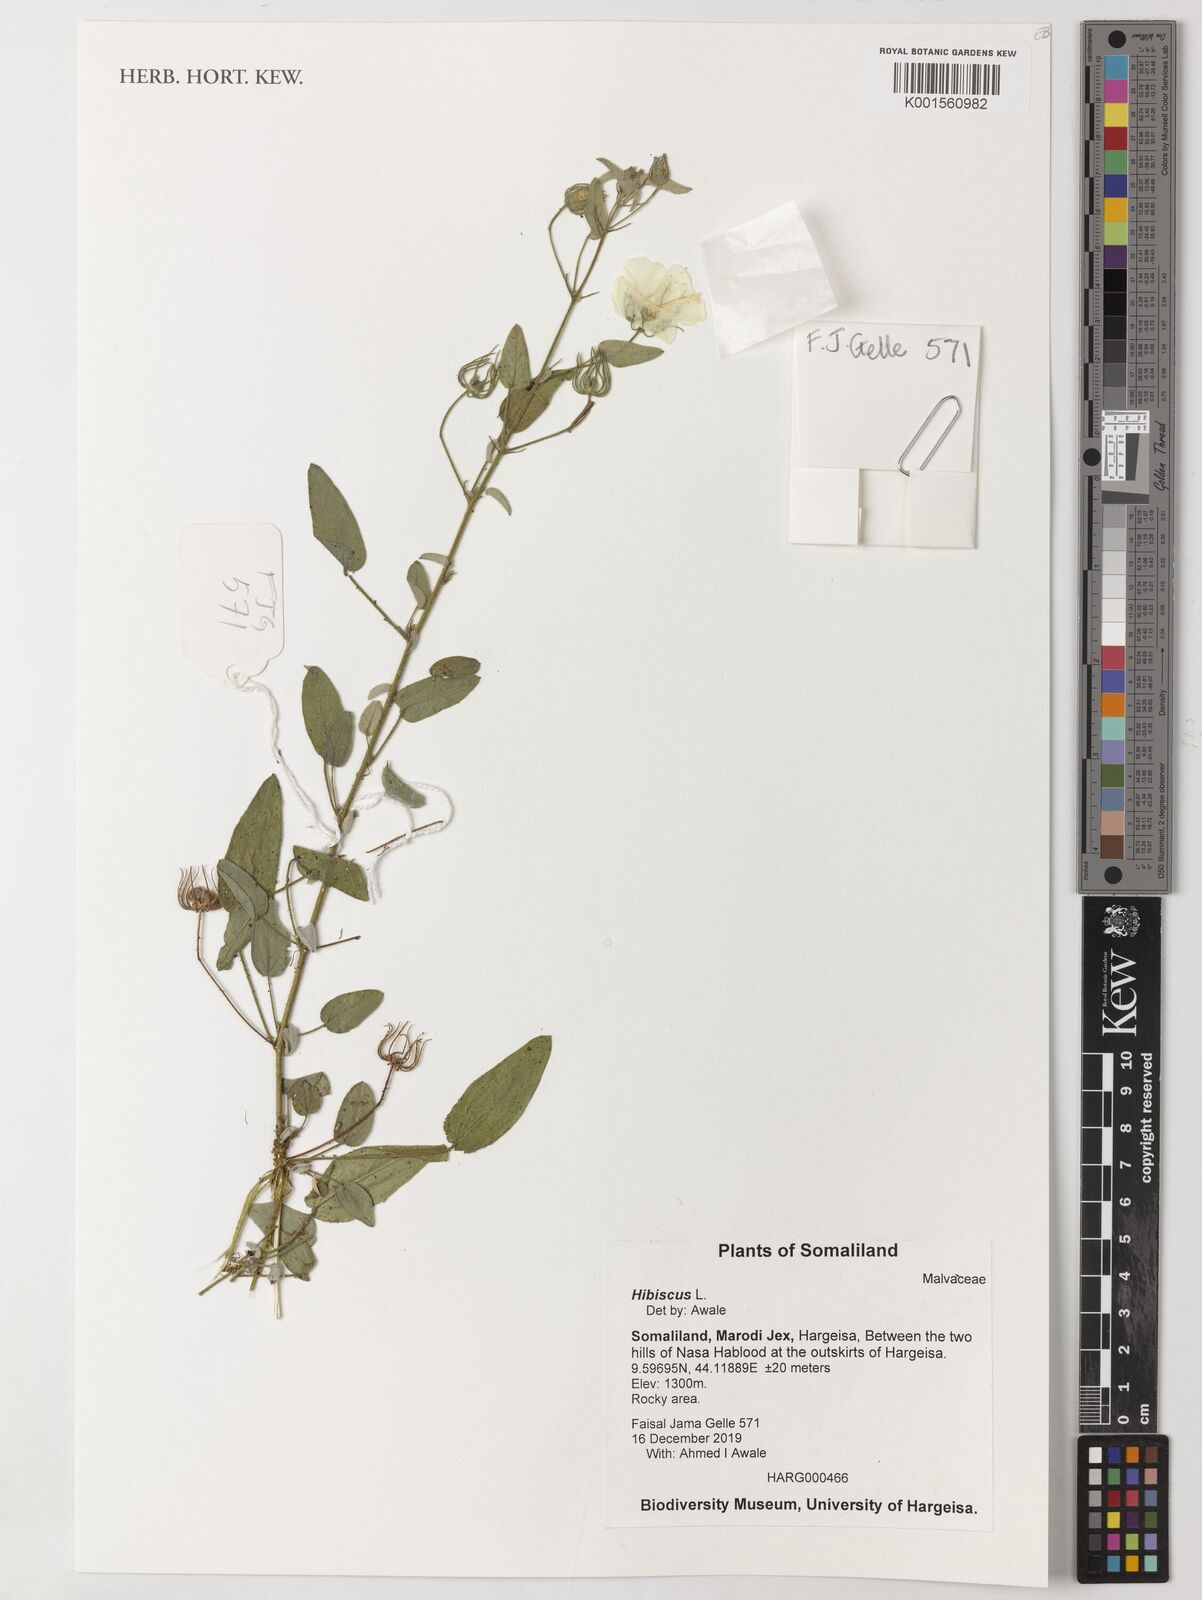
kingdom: Plantae
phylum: Tracheophyta
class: Magnoliopsida
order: Malvales
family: Malvaceae
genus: Hibiscus
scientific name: Hibiscus
